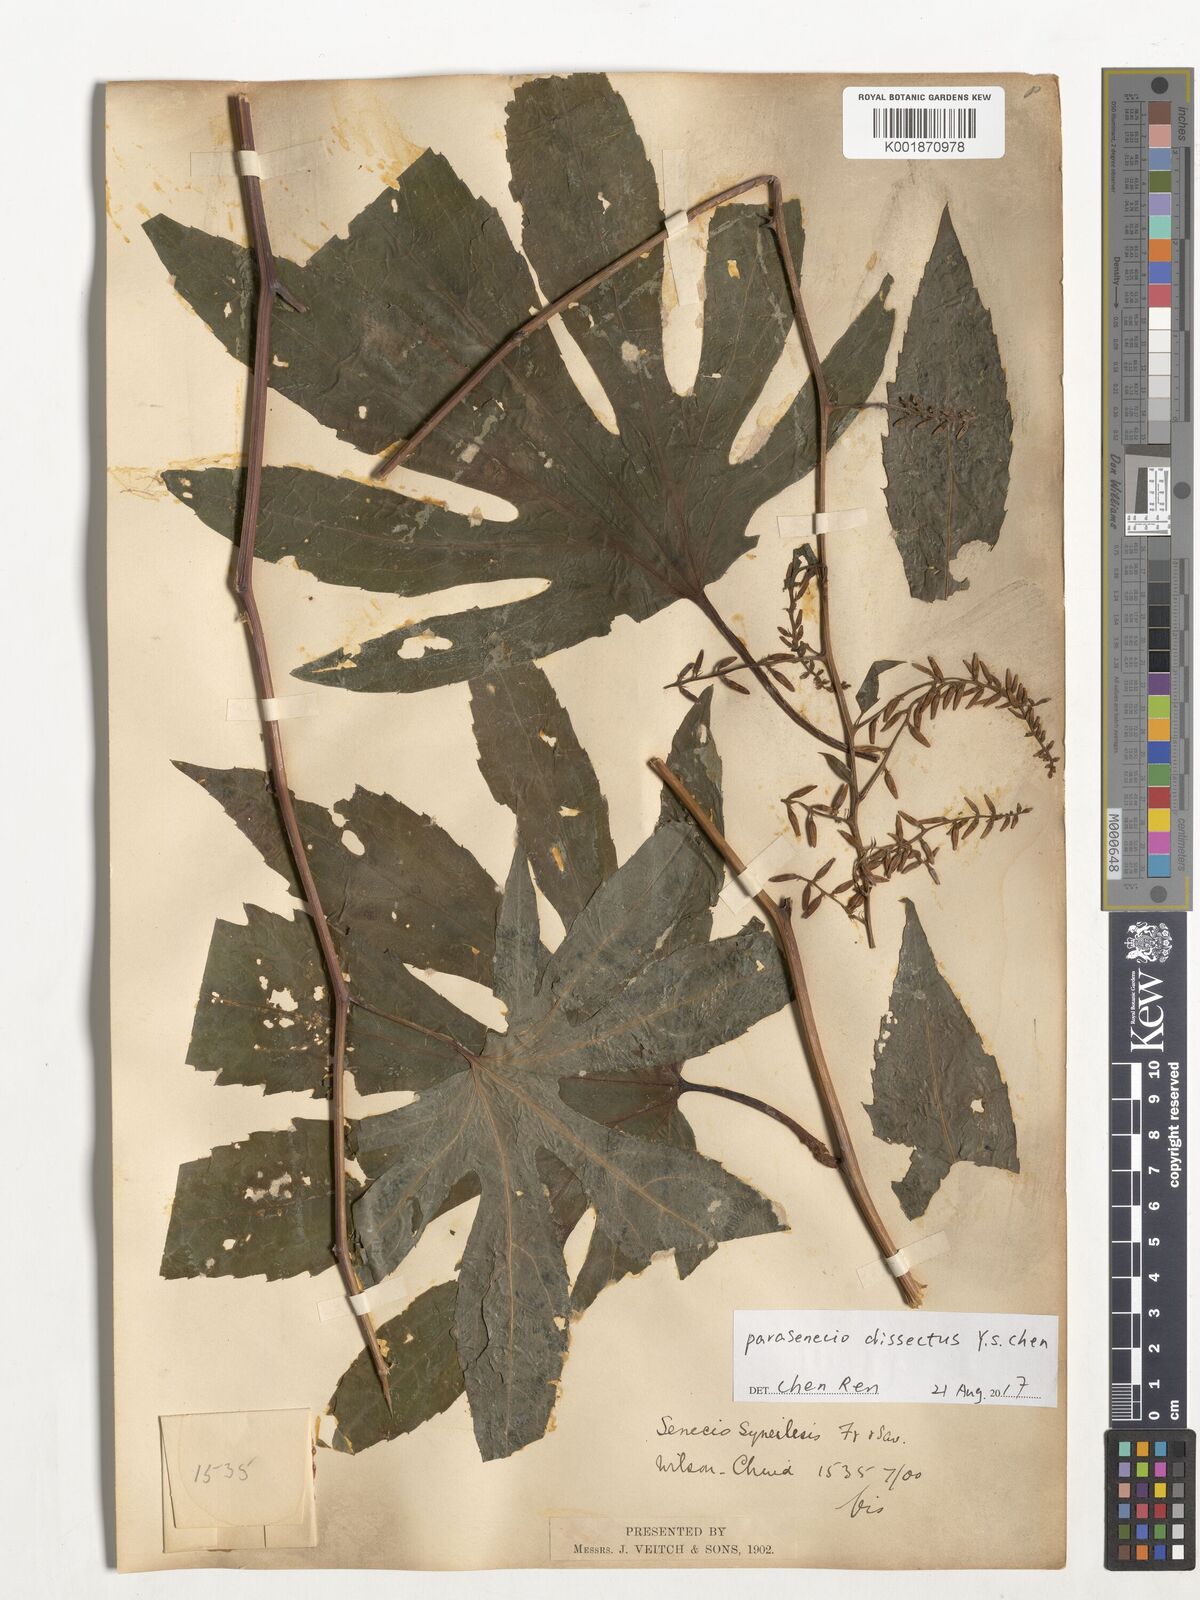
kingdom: Plantae
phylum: Tracheophyta
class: Magnoliopsida
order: Asterales
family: Asteraceae
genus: Parasenecio
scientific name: Parasenecio dissectus
